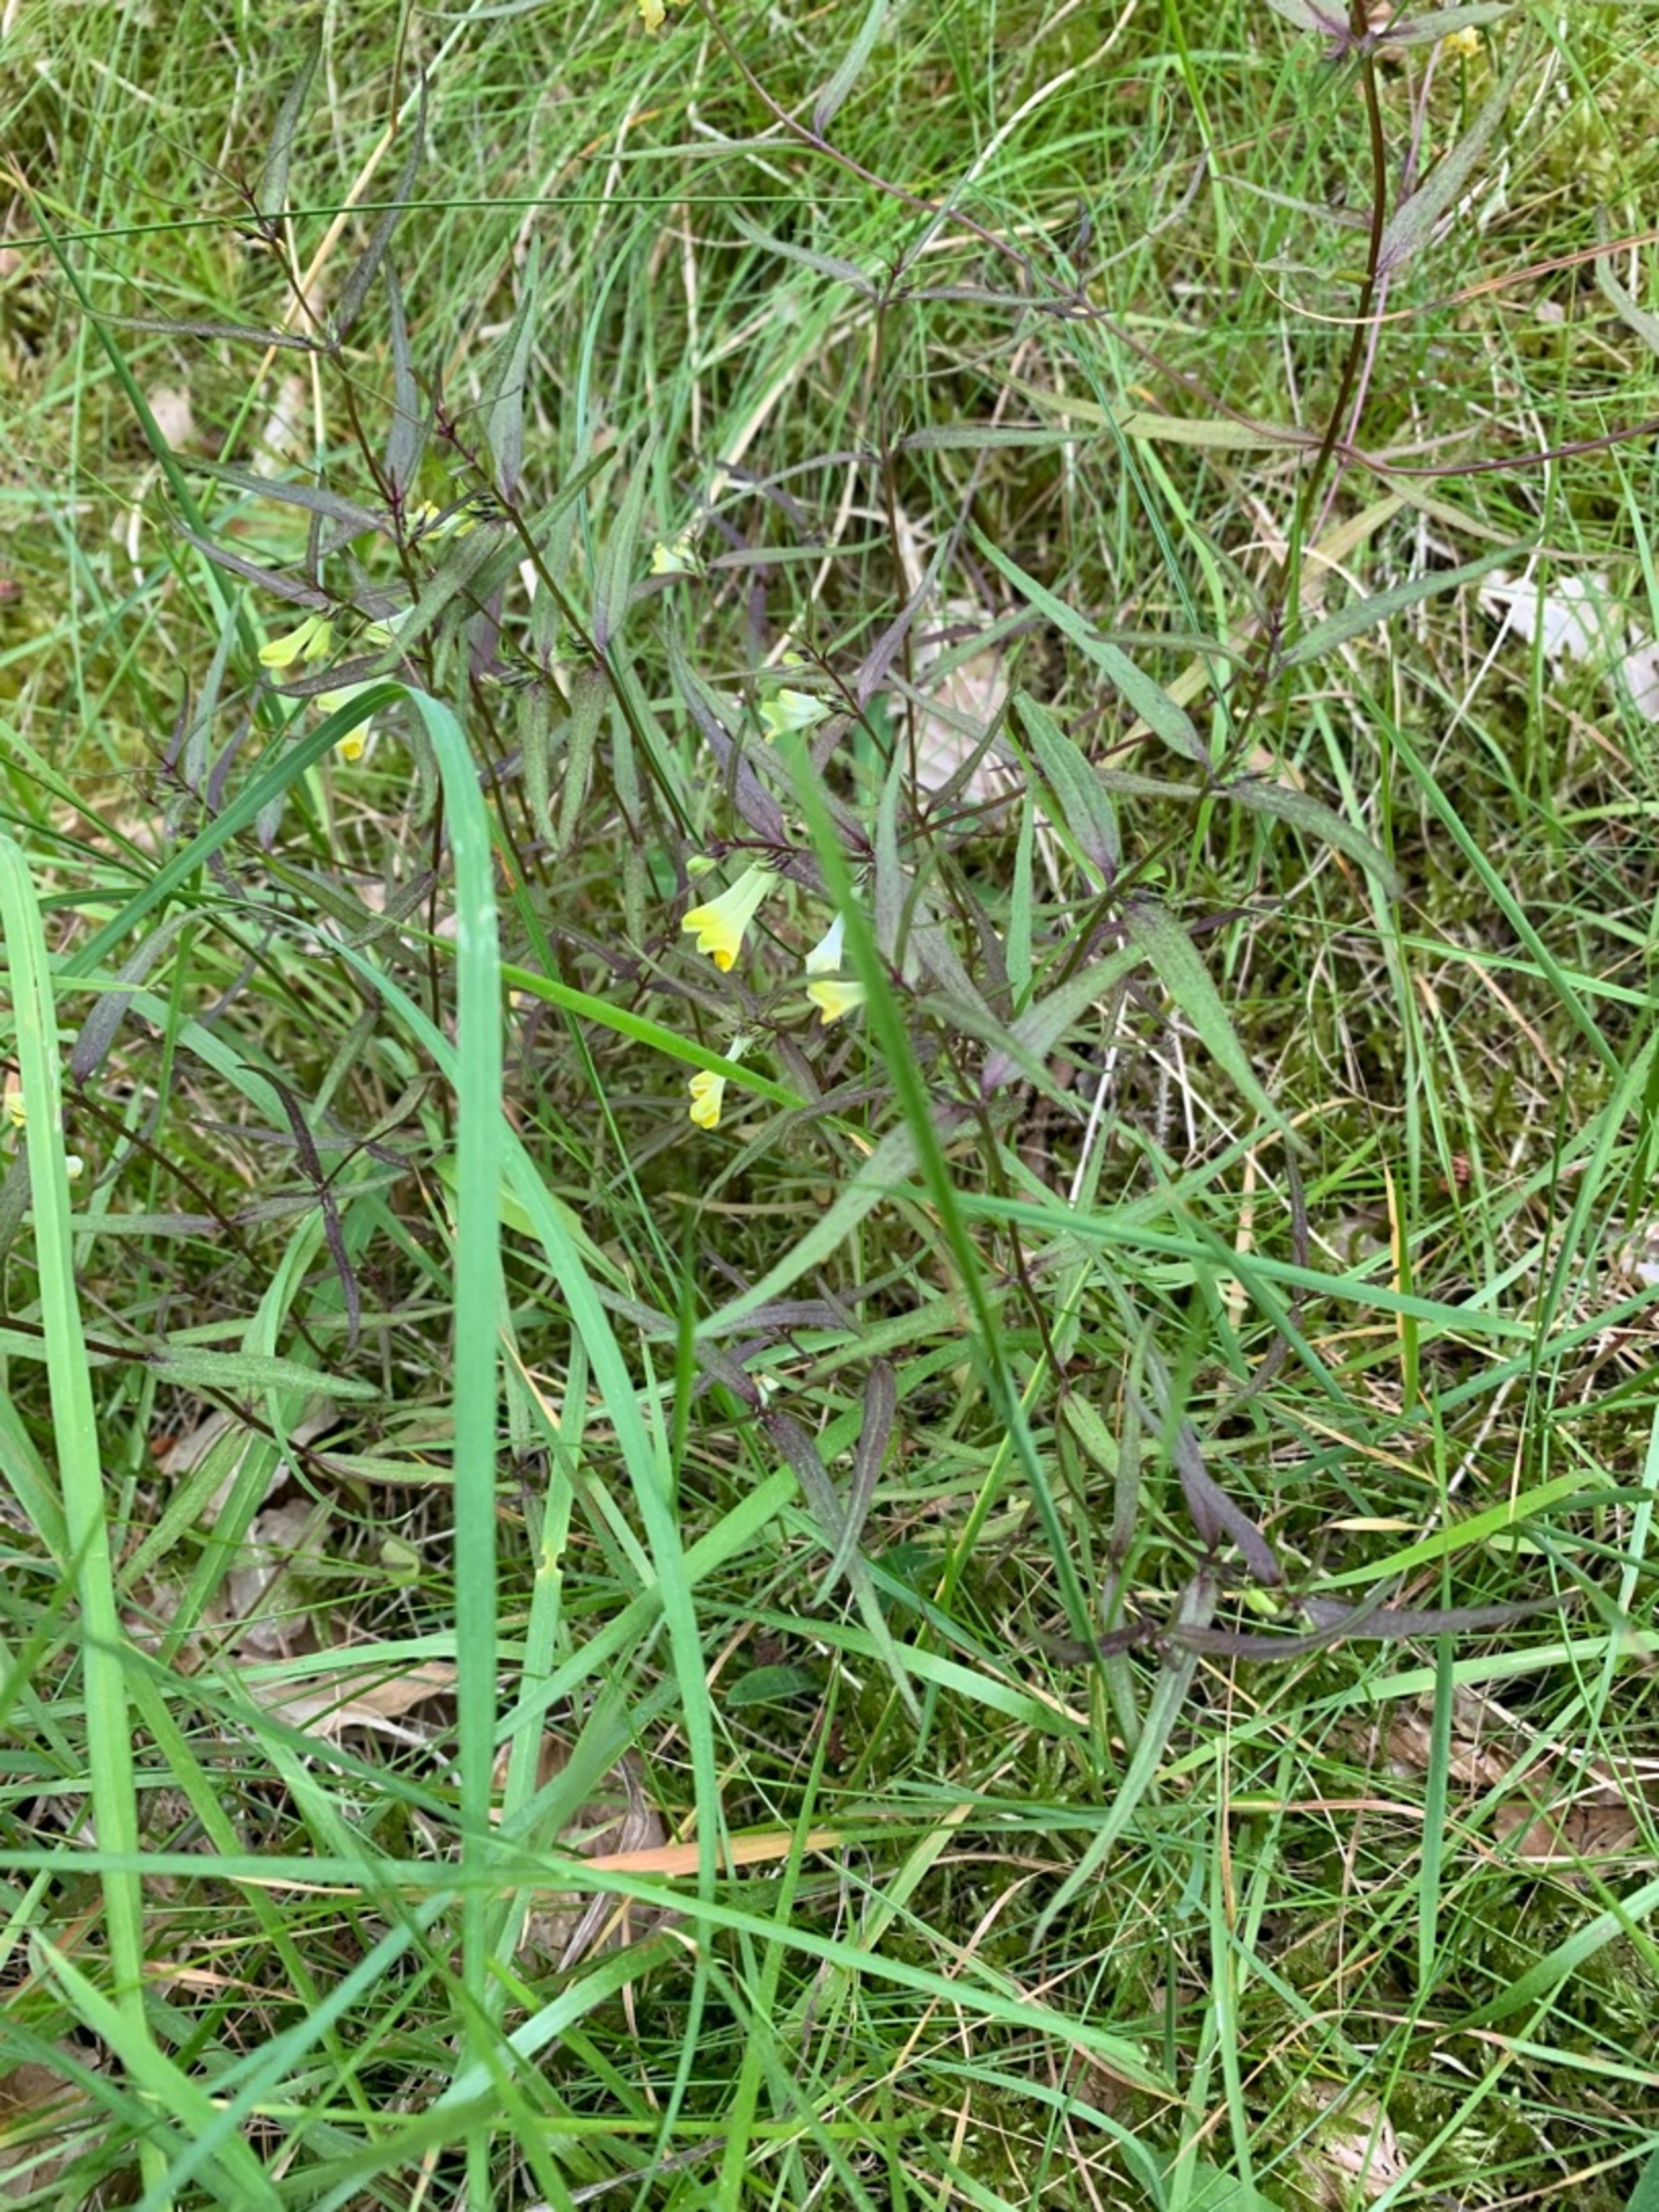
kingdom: Plantae
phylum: Tracheophyta
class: Magnoliopsida
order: Lamiales
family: Orobanchaceae
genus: Melampyrum
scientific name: Melampyrum pratense
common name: Almindelig kohvede
